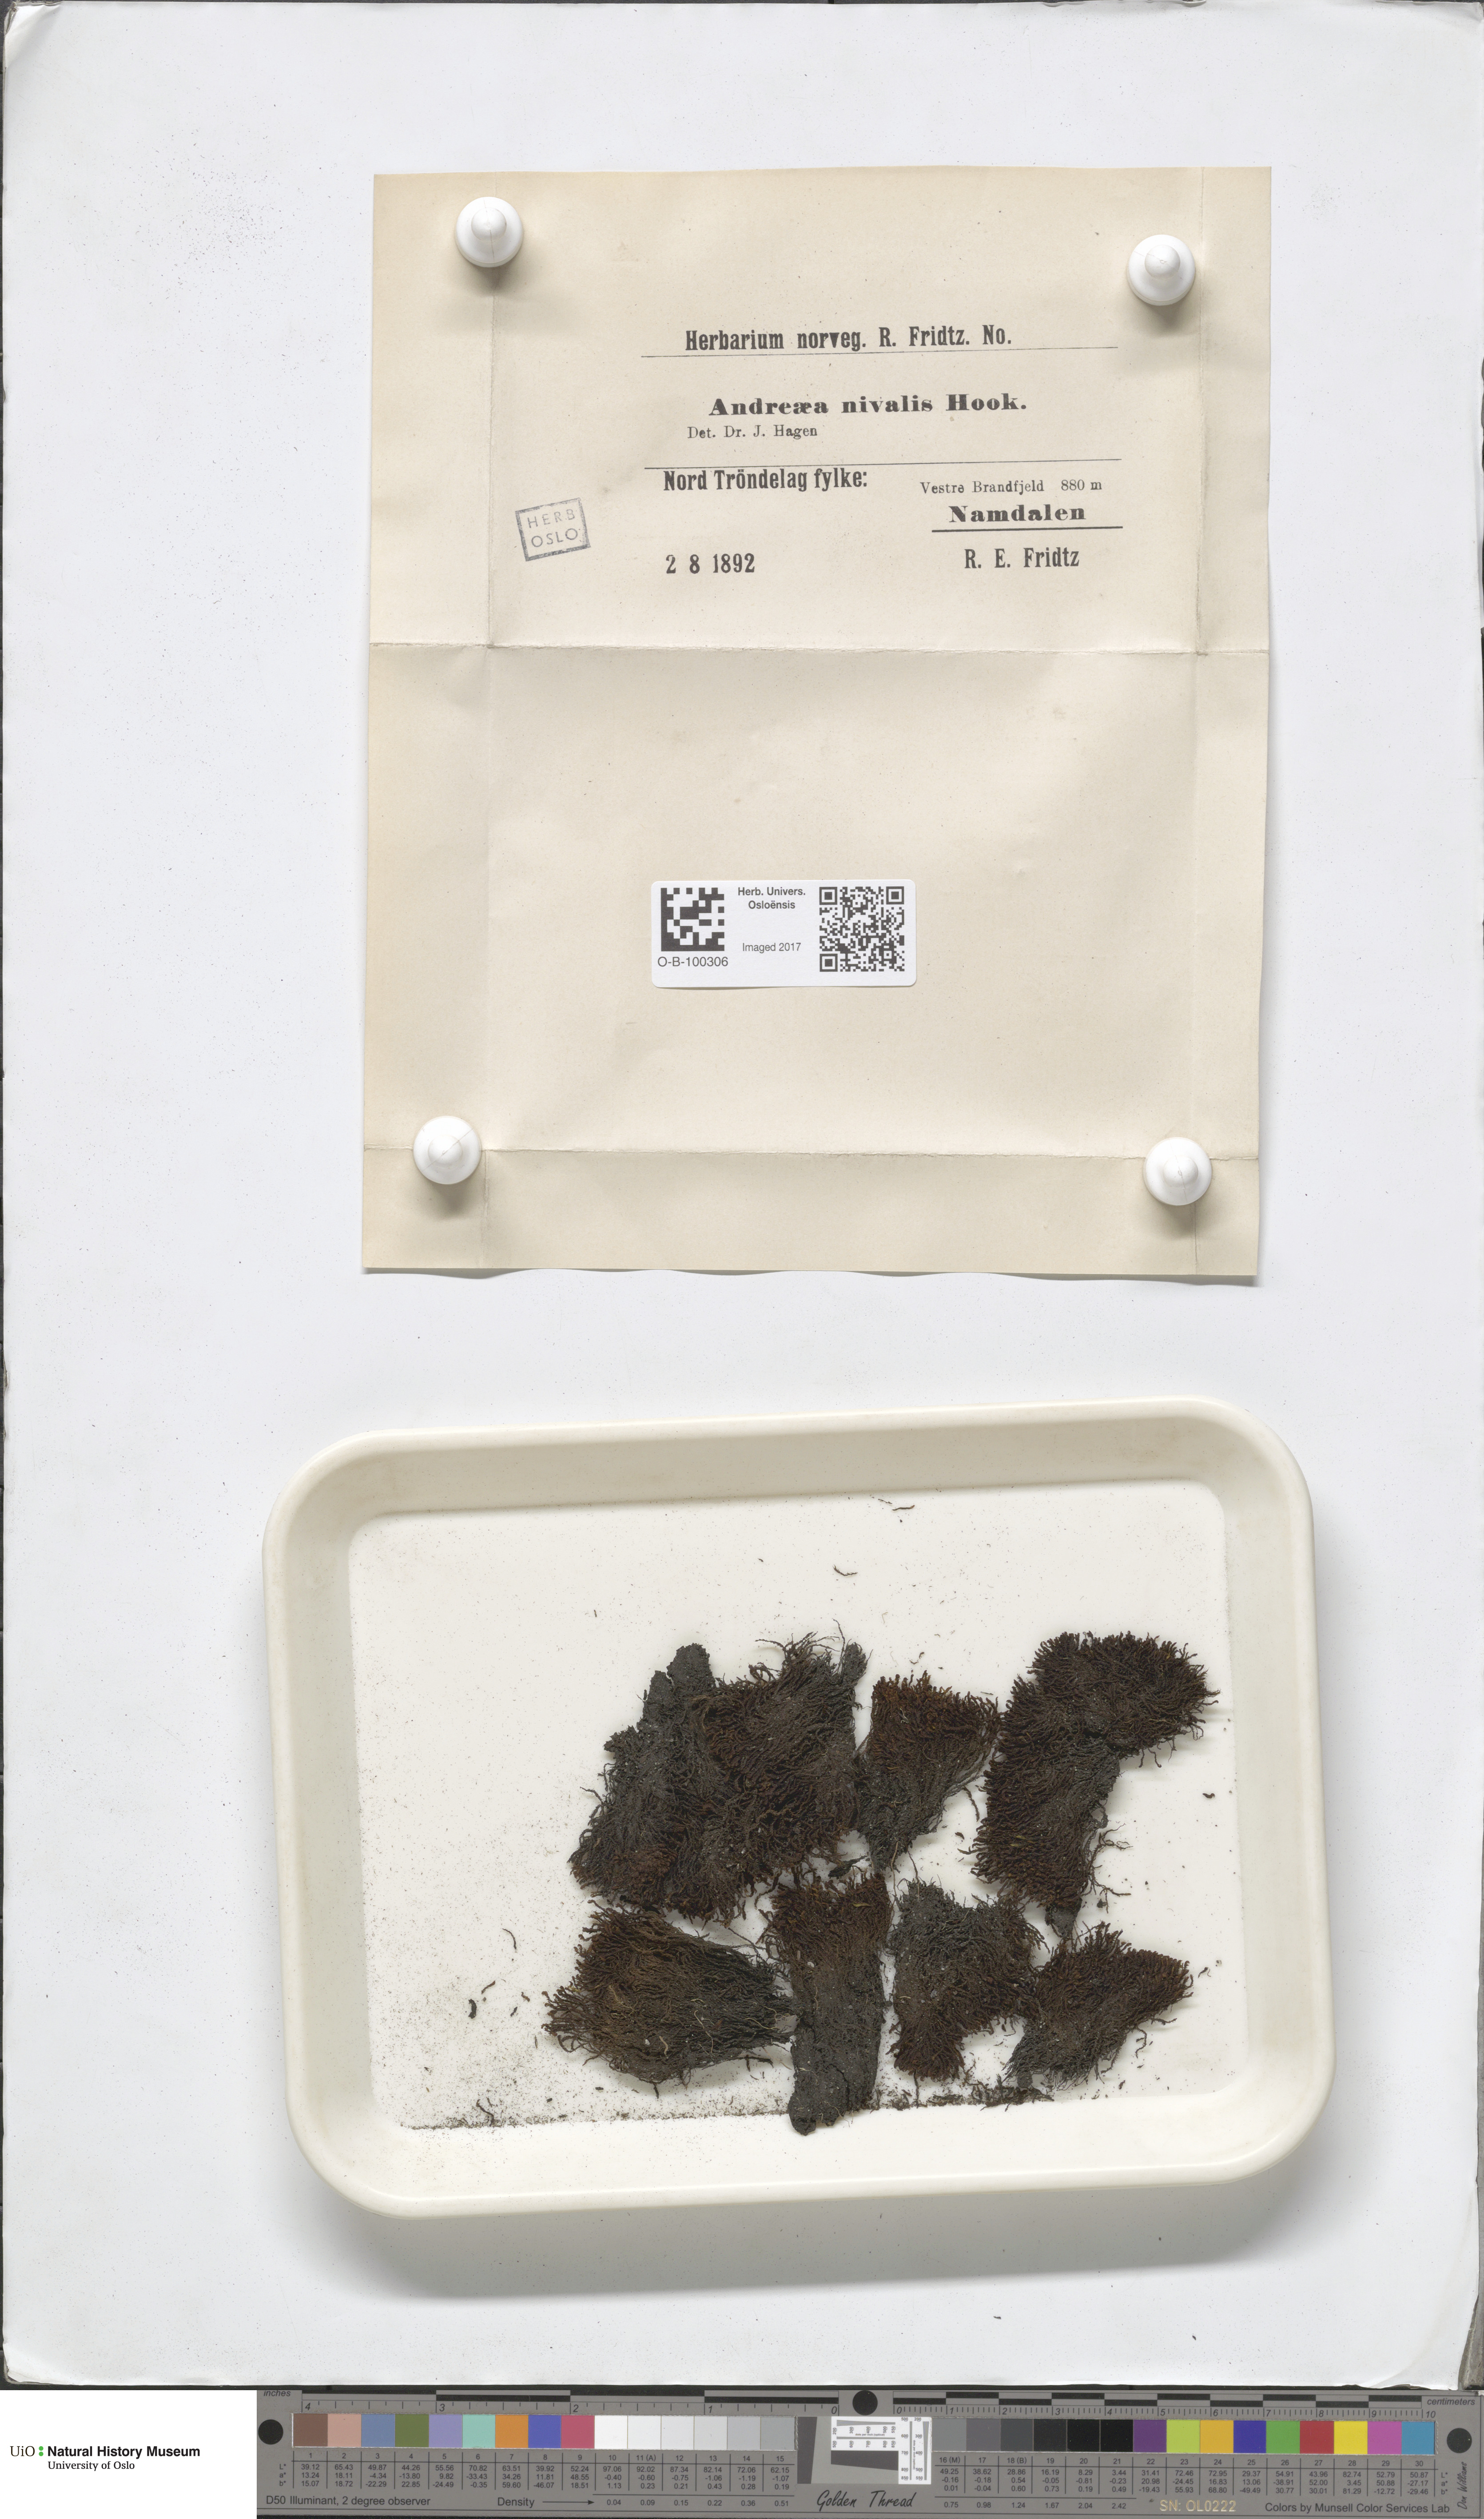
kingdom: Plantae
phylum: Bryophyta
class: Andreaeopsida
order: Andreaeales
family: Andreaeaceae
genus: Andreaea
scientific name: Andreaea nivalis
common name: Snow rock moss
